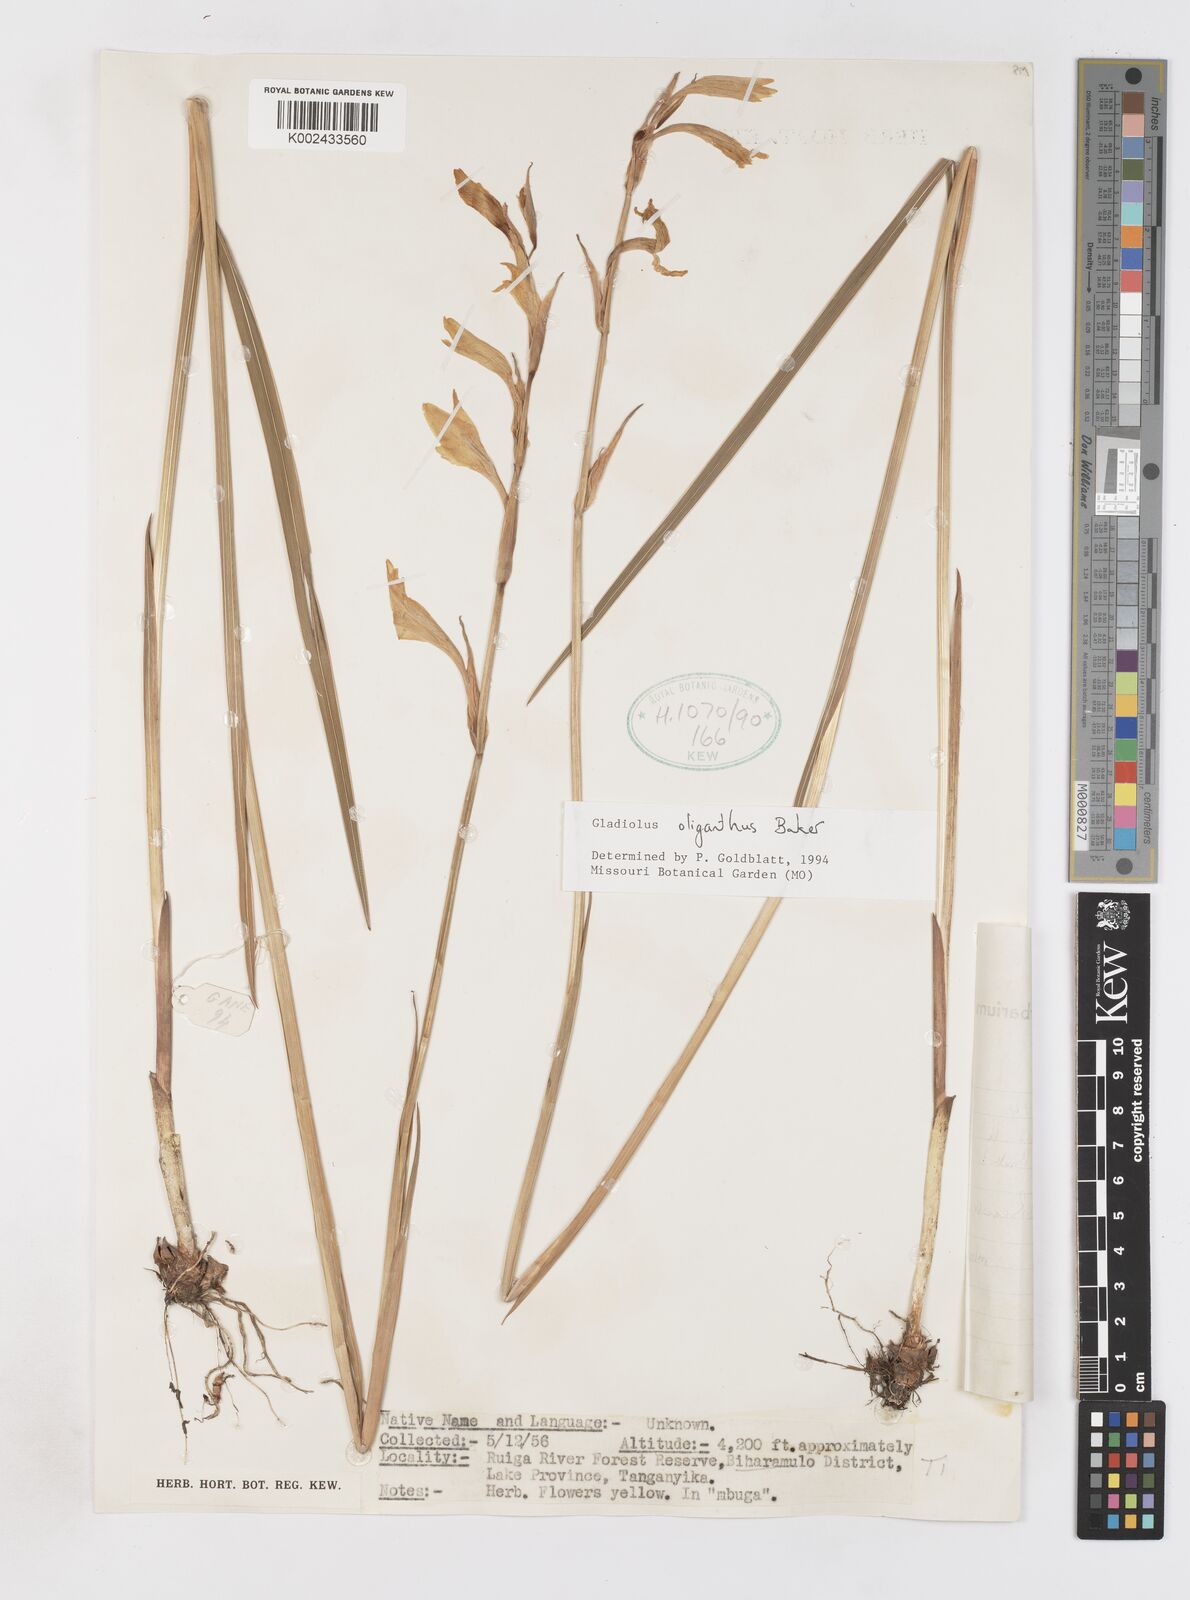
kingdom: Plantae
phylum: Tracheophyta
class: Liliopsida
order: Asparagales
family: Iridaceae
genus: Gladiolus
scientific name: Gladiolus oliganthus
